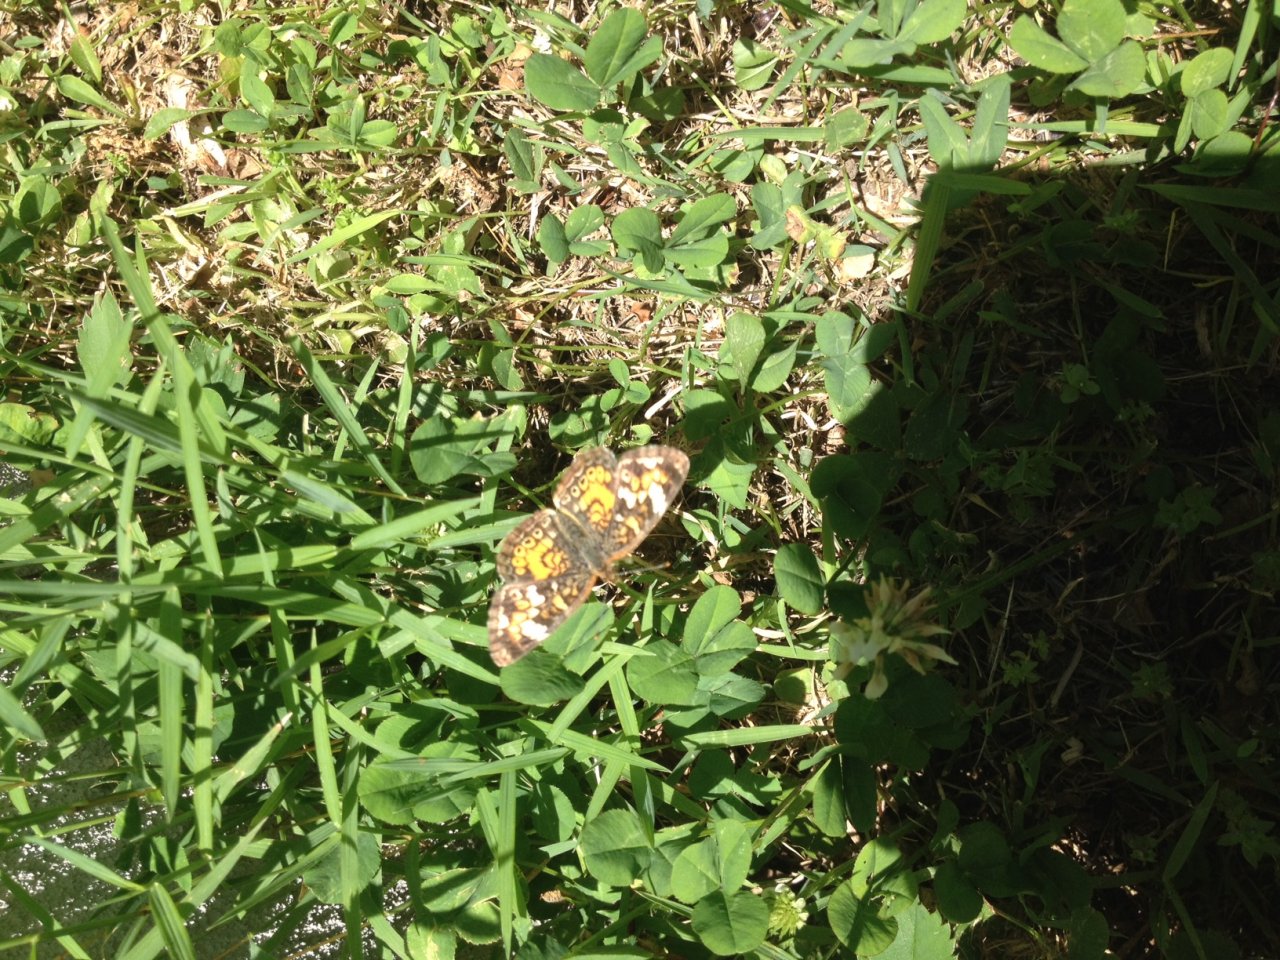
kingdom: Animalia
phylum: Arthropoda
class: Insecta
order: Lepidoptera
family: Nymphalidae
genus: Phyciodes
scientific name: Phyciodes
